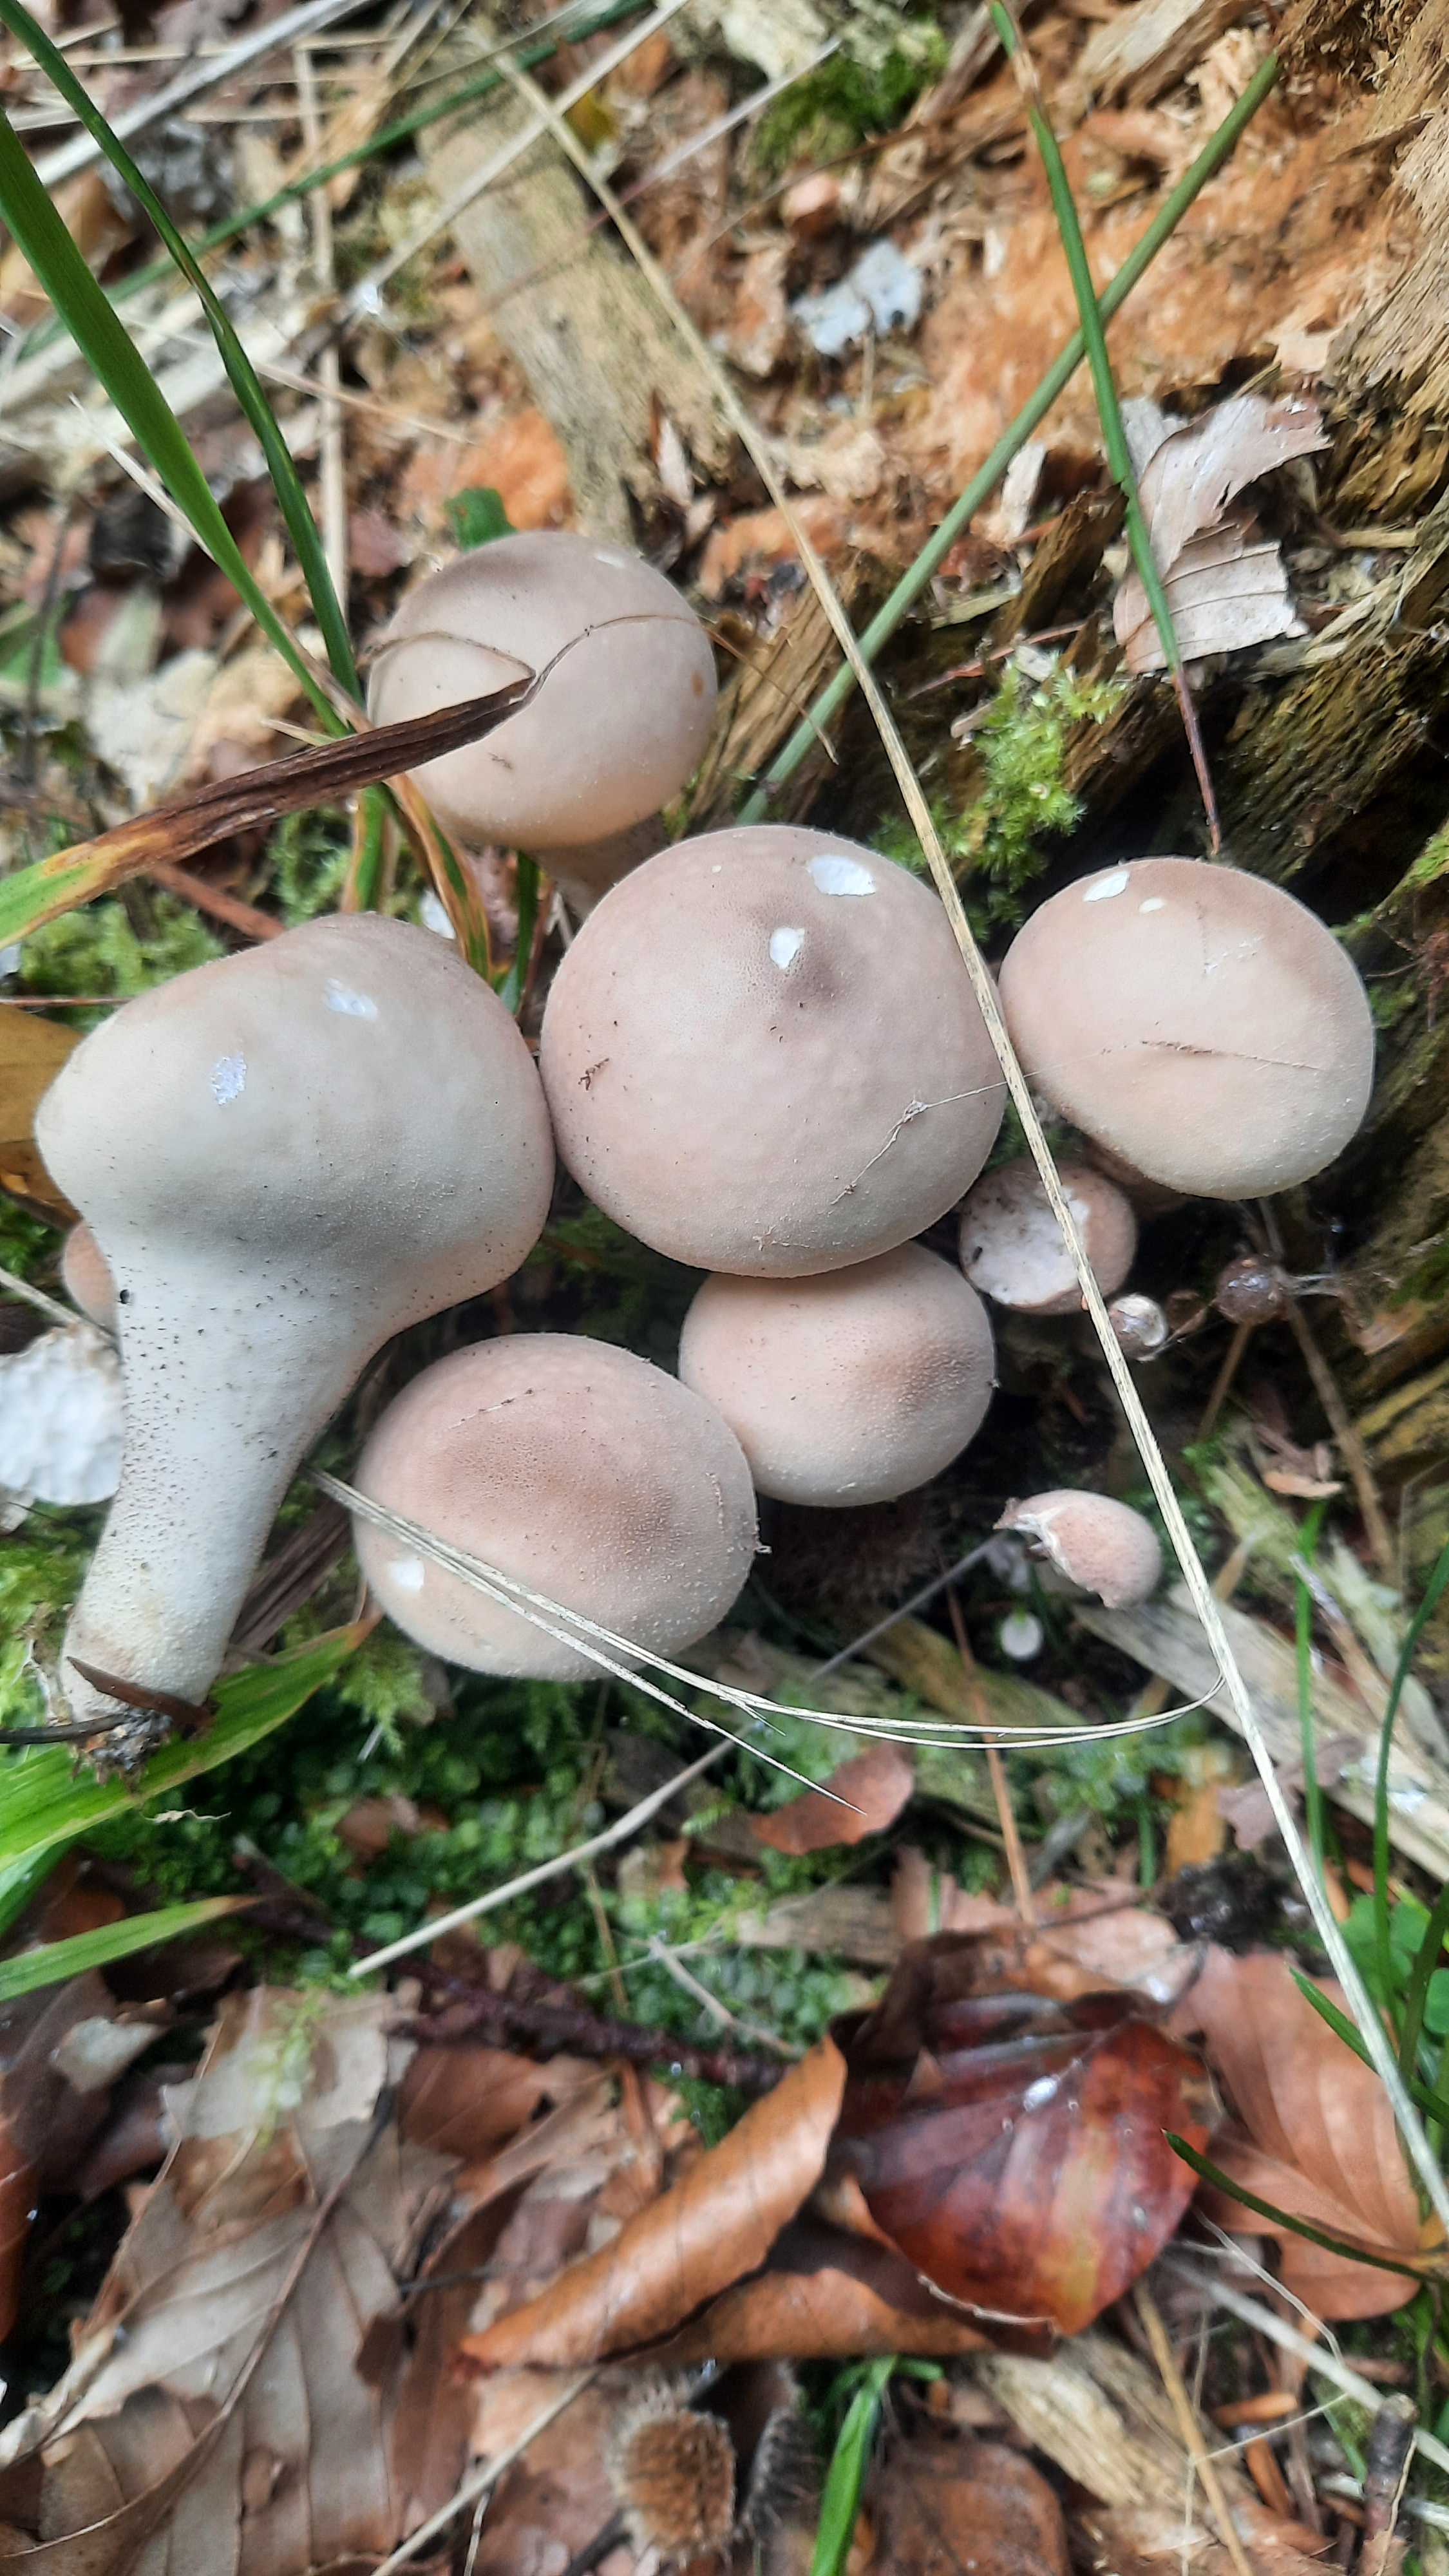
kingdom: Fungi
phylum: Basidiomycota
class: Agaricomycetes
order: Agaricales
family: Lycoperdaceae
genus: Apioperdon
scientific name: Apioperdon pyriforme
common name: pære-støvbold
